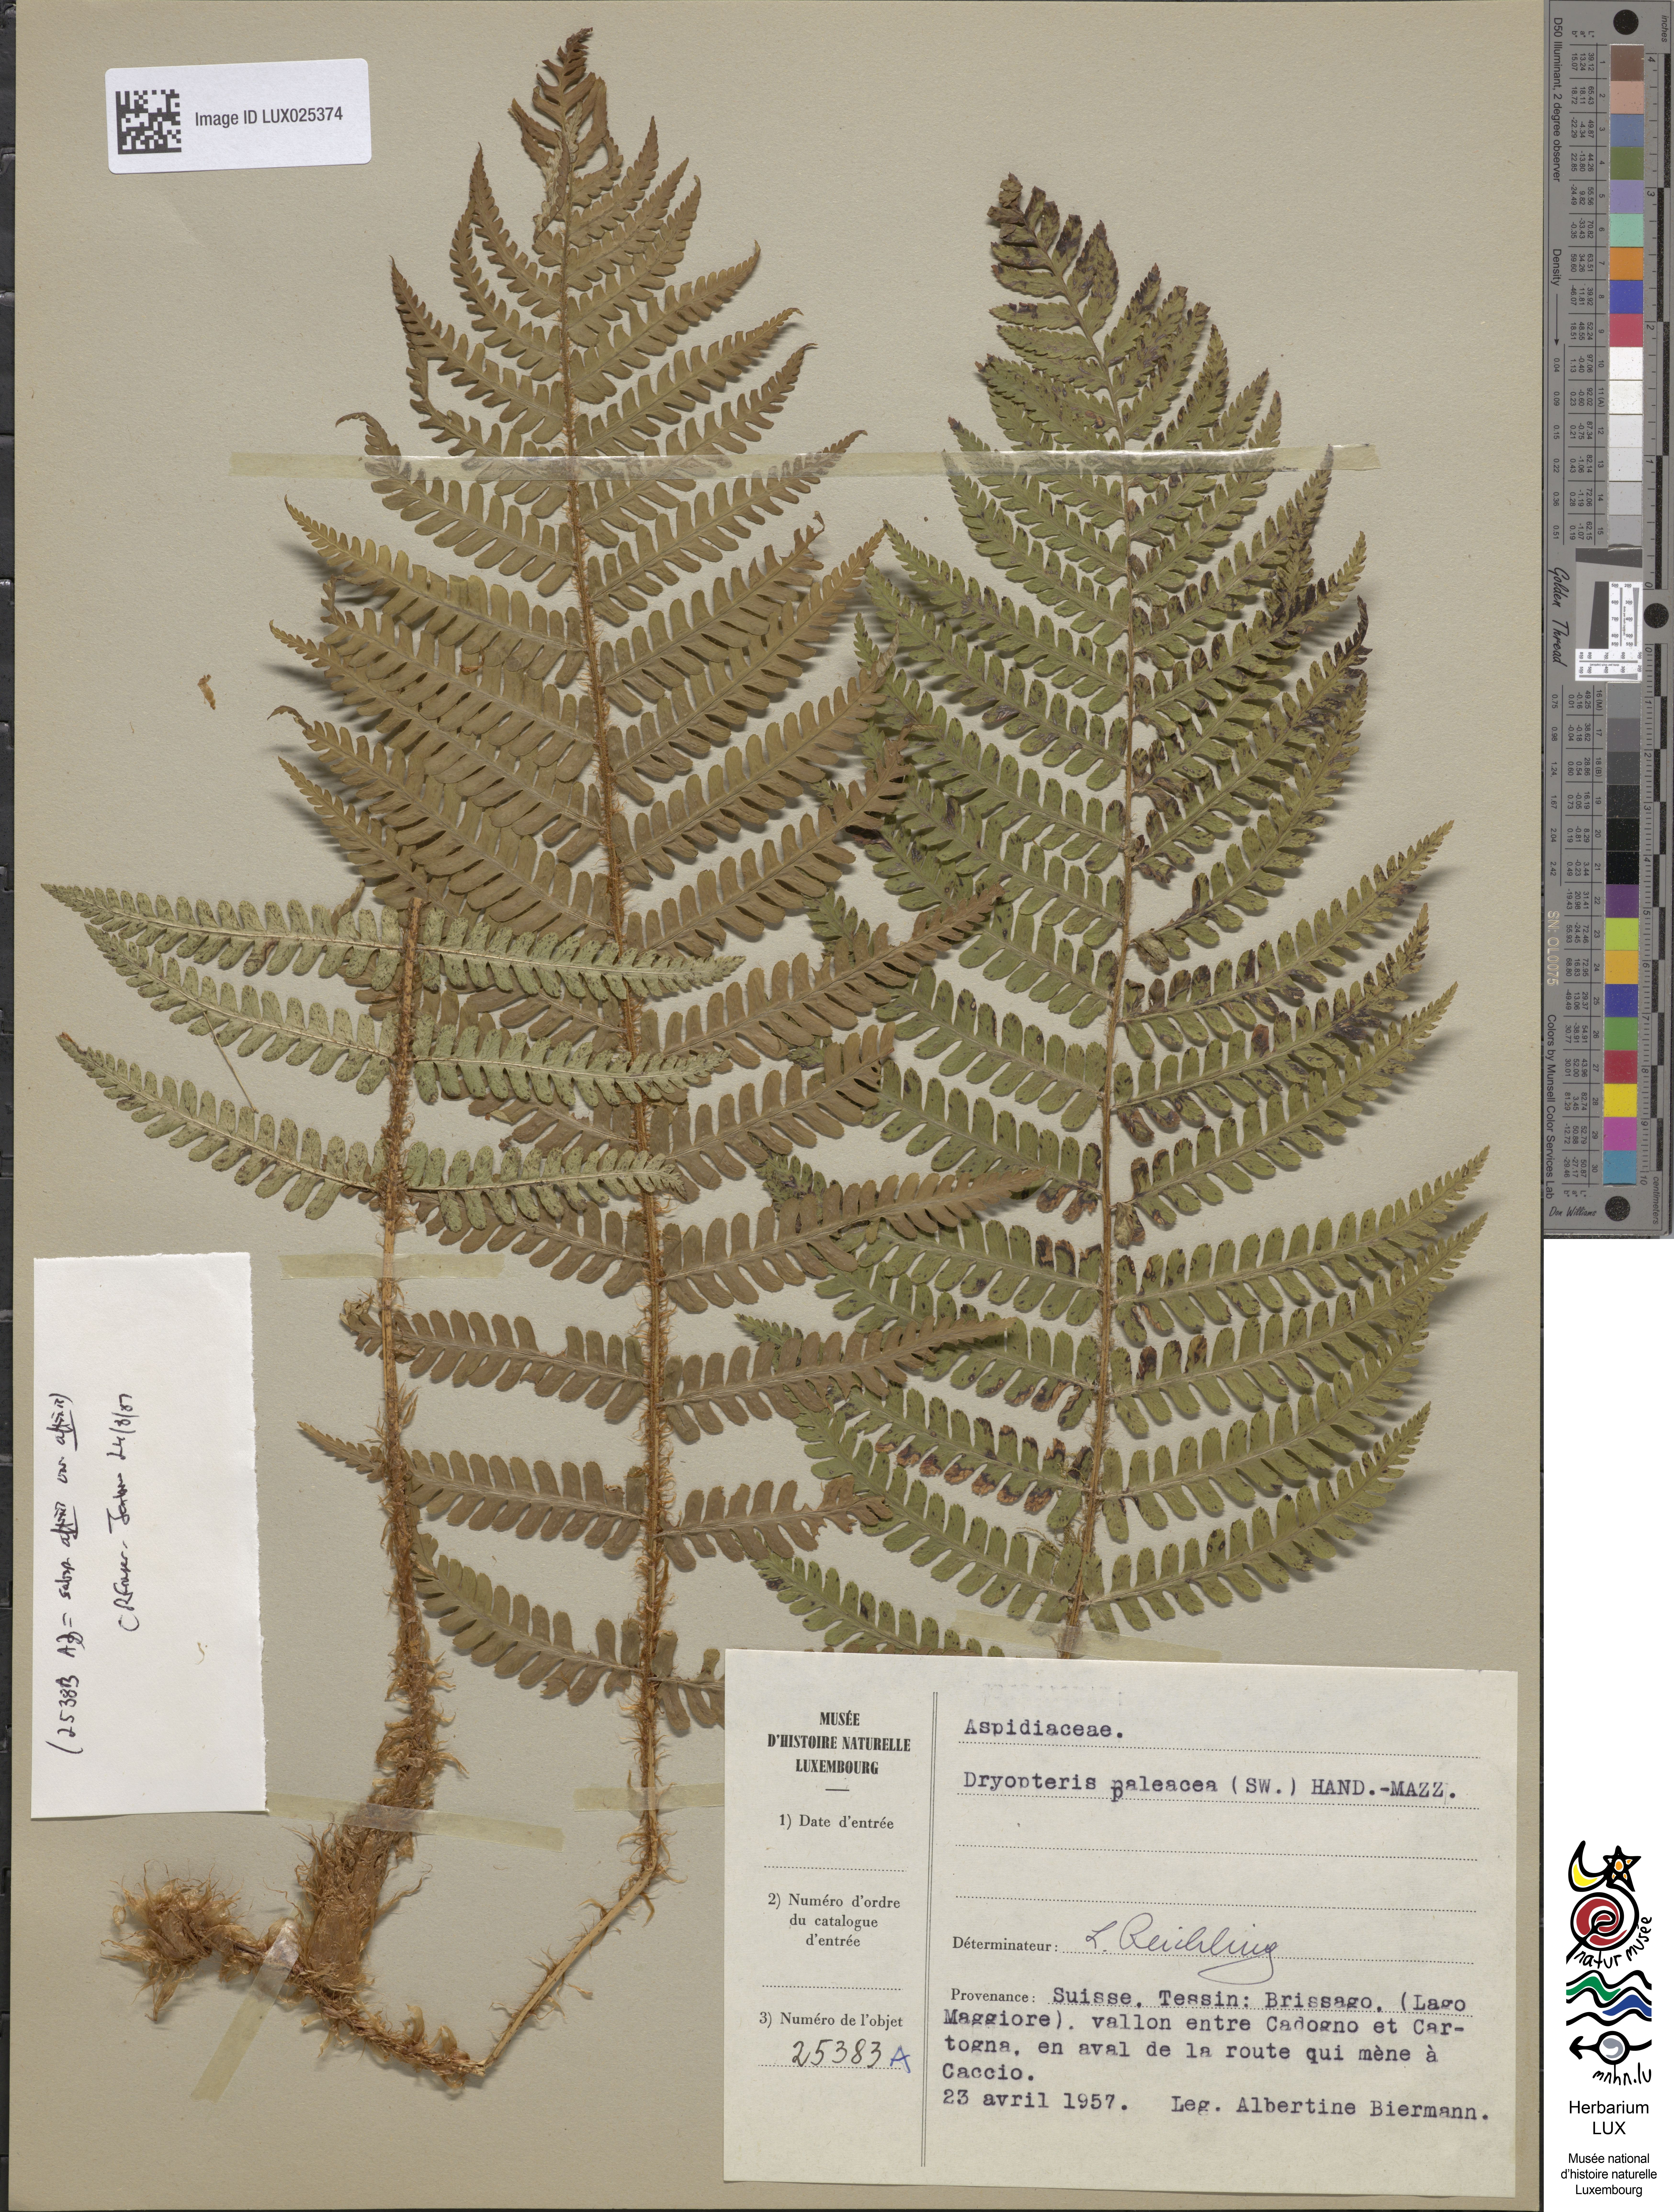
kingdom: Plantae
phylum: Tracheophyta
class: Polypodiopsida
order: Polypodiales
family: Dryopteridaceae
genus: Dryopteris
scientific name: Dryopteris affinis
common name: Scaly male fern
